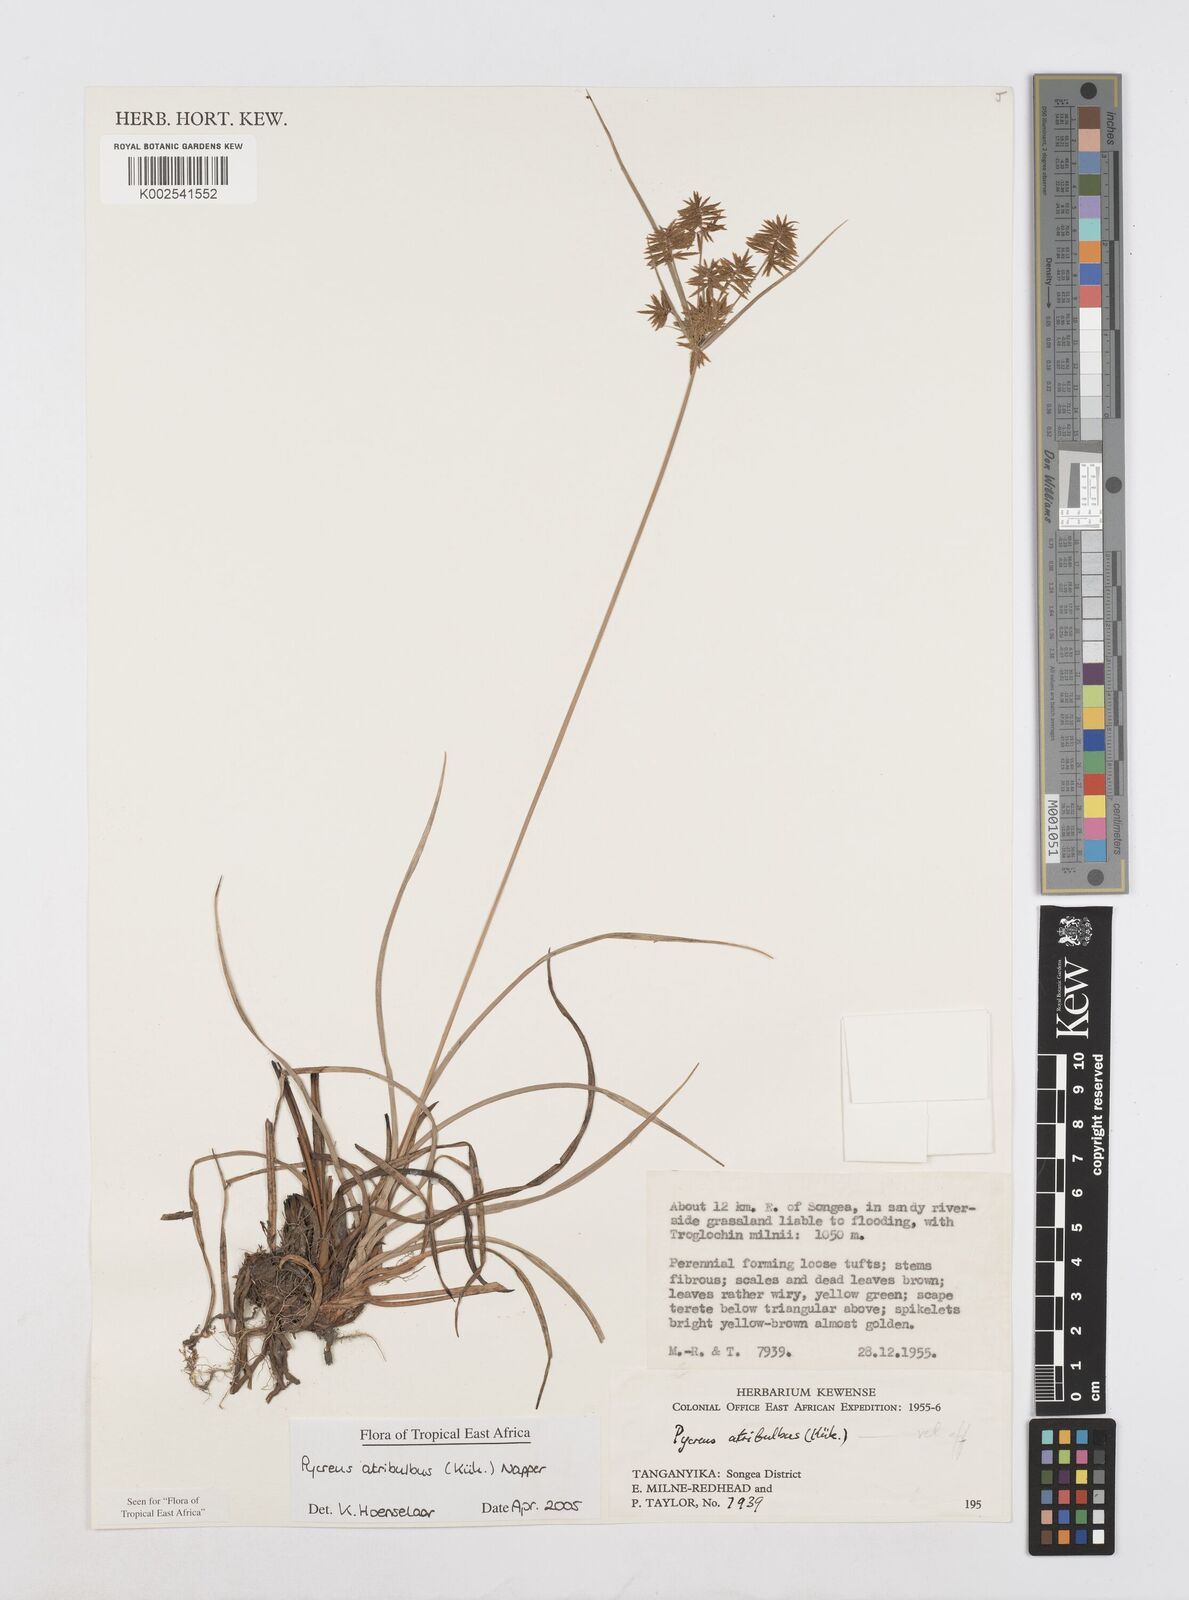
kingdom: Plantae
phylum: Tracheophyta
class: Liliopsida
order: Poales
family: Cyperaceae
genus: Cyperus
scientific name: Cyperus intactus
